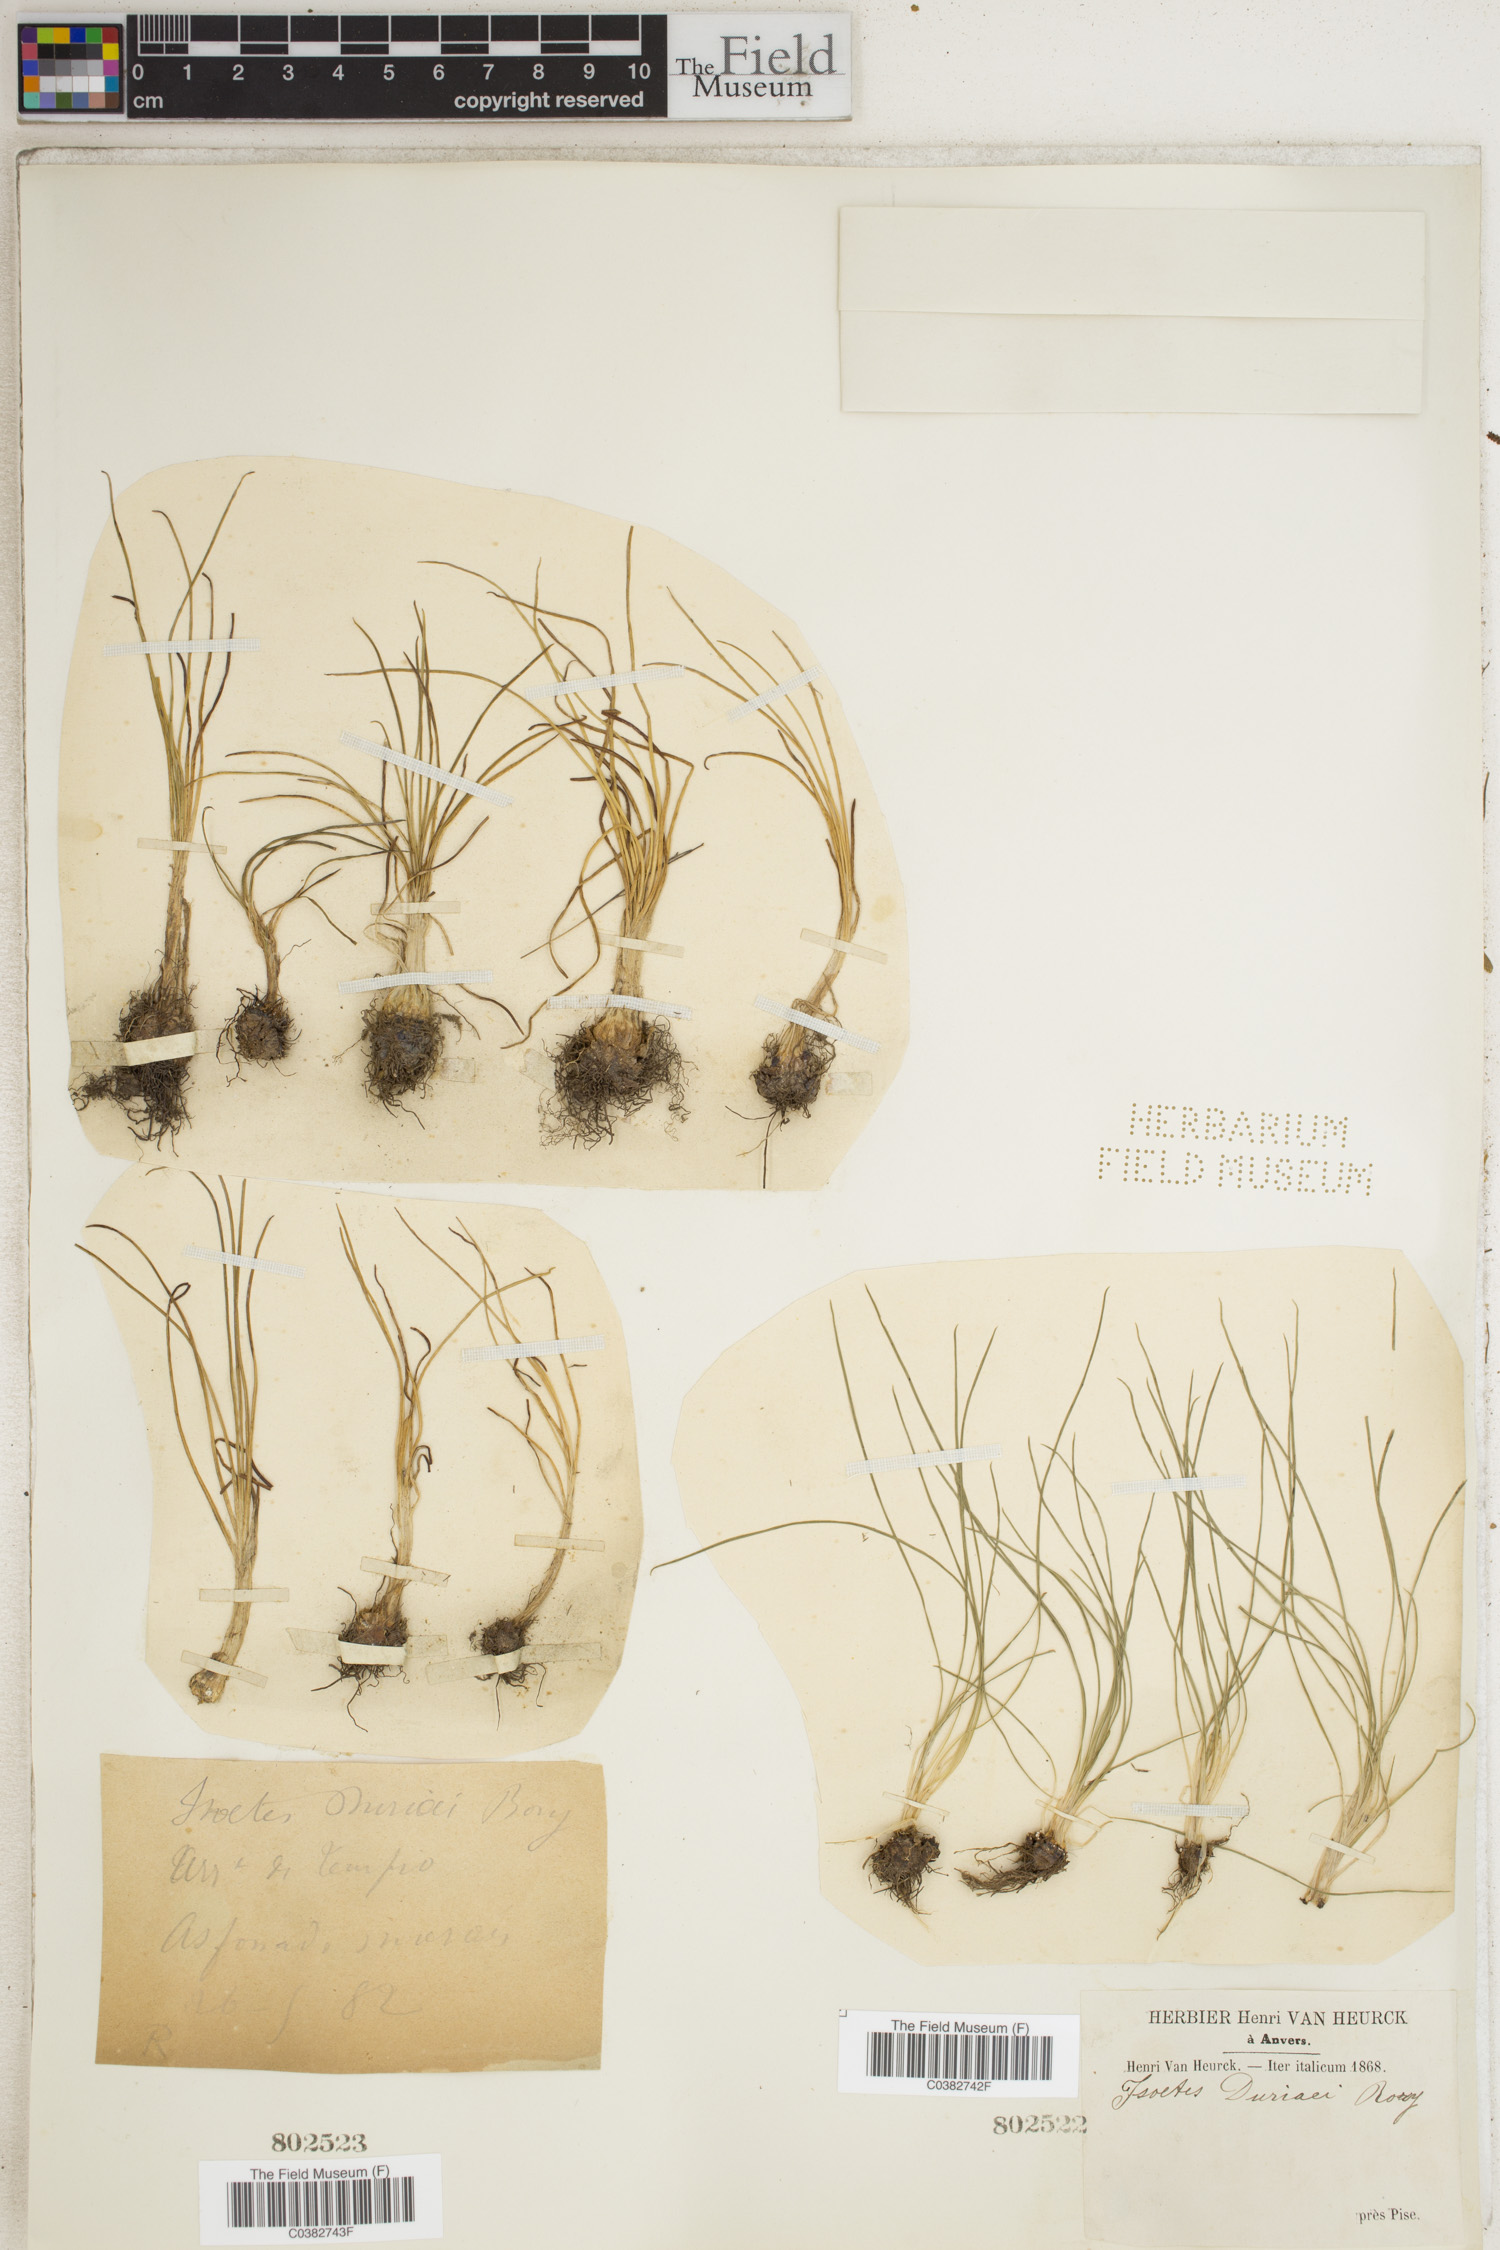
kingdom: Plantae
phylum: Tracheophyta
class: Lycopodiopsida
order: Isoetales
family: Isoetaceae
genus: Isoetes
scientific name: Isoetes duriei
